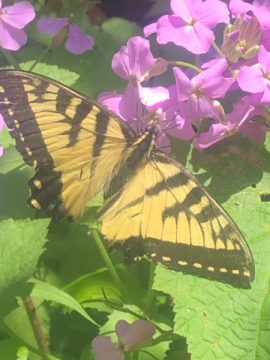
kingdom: Animalia
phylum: Arthropoda
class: Insecta
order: Lepidoptera
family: Papilionidae
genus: Pterourus
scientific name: Pterourus canadensis
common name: Canadian Tiger Swallowtail
